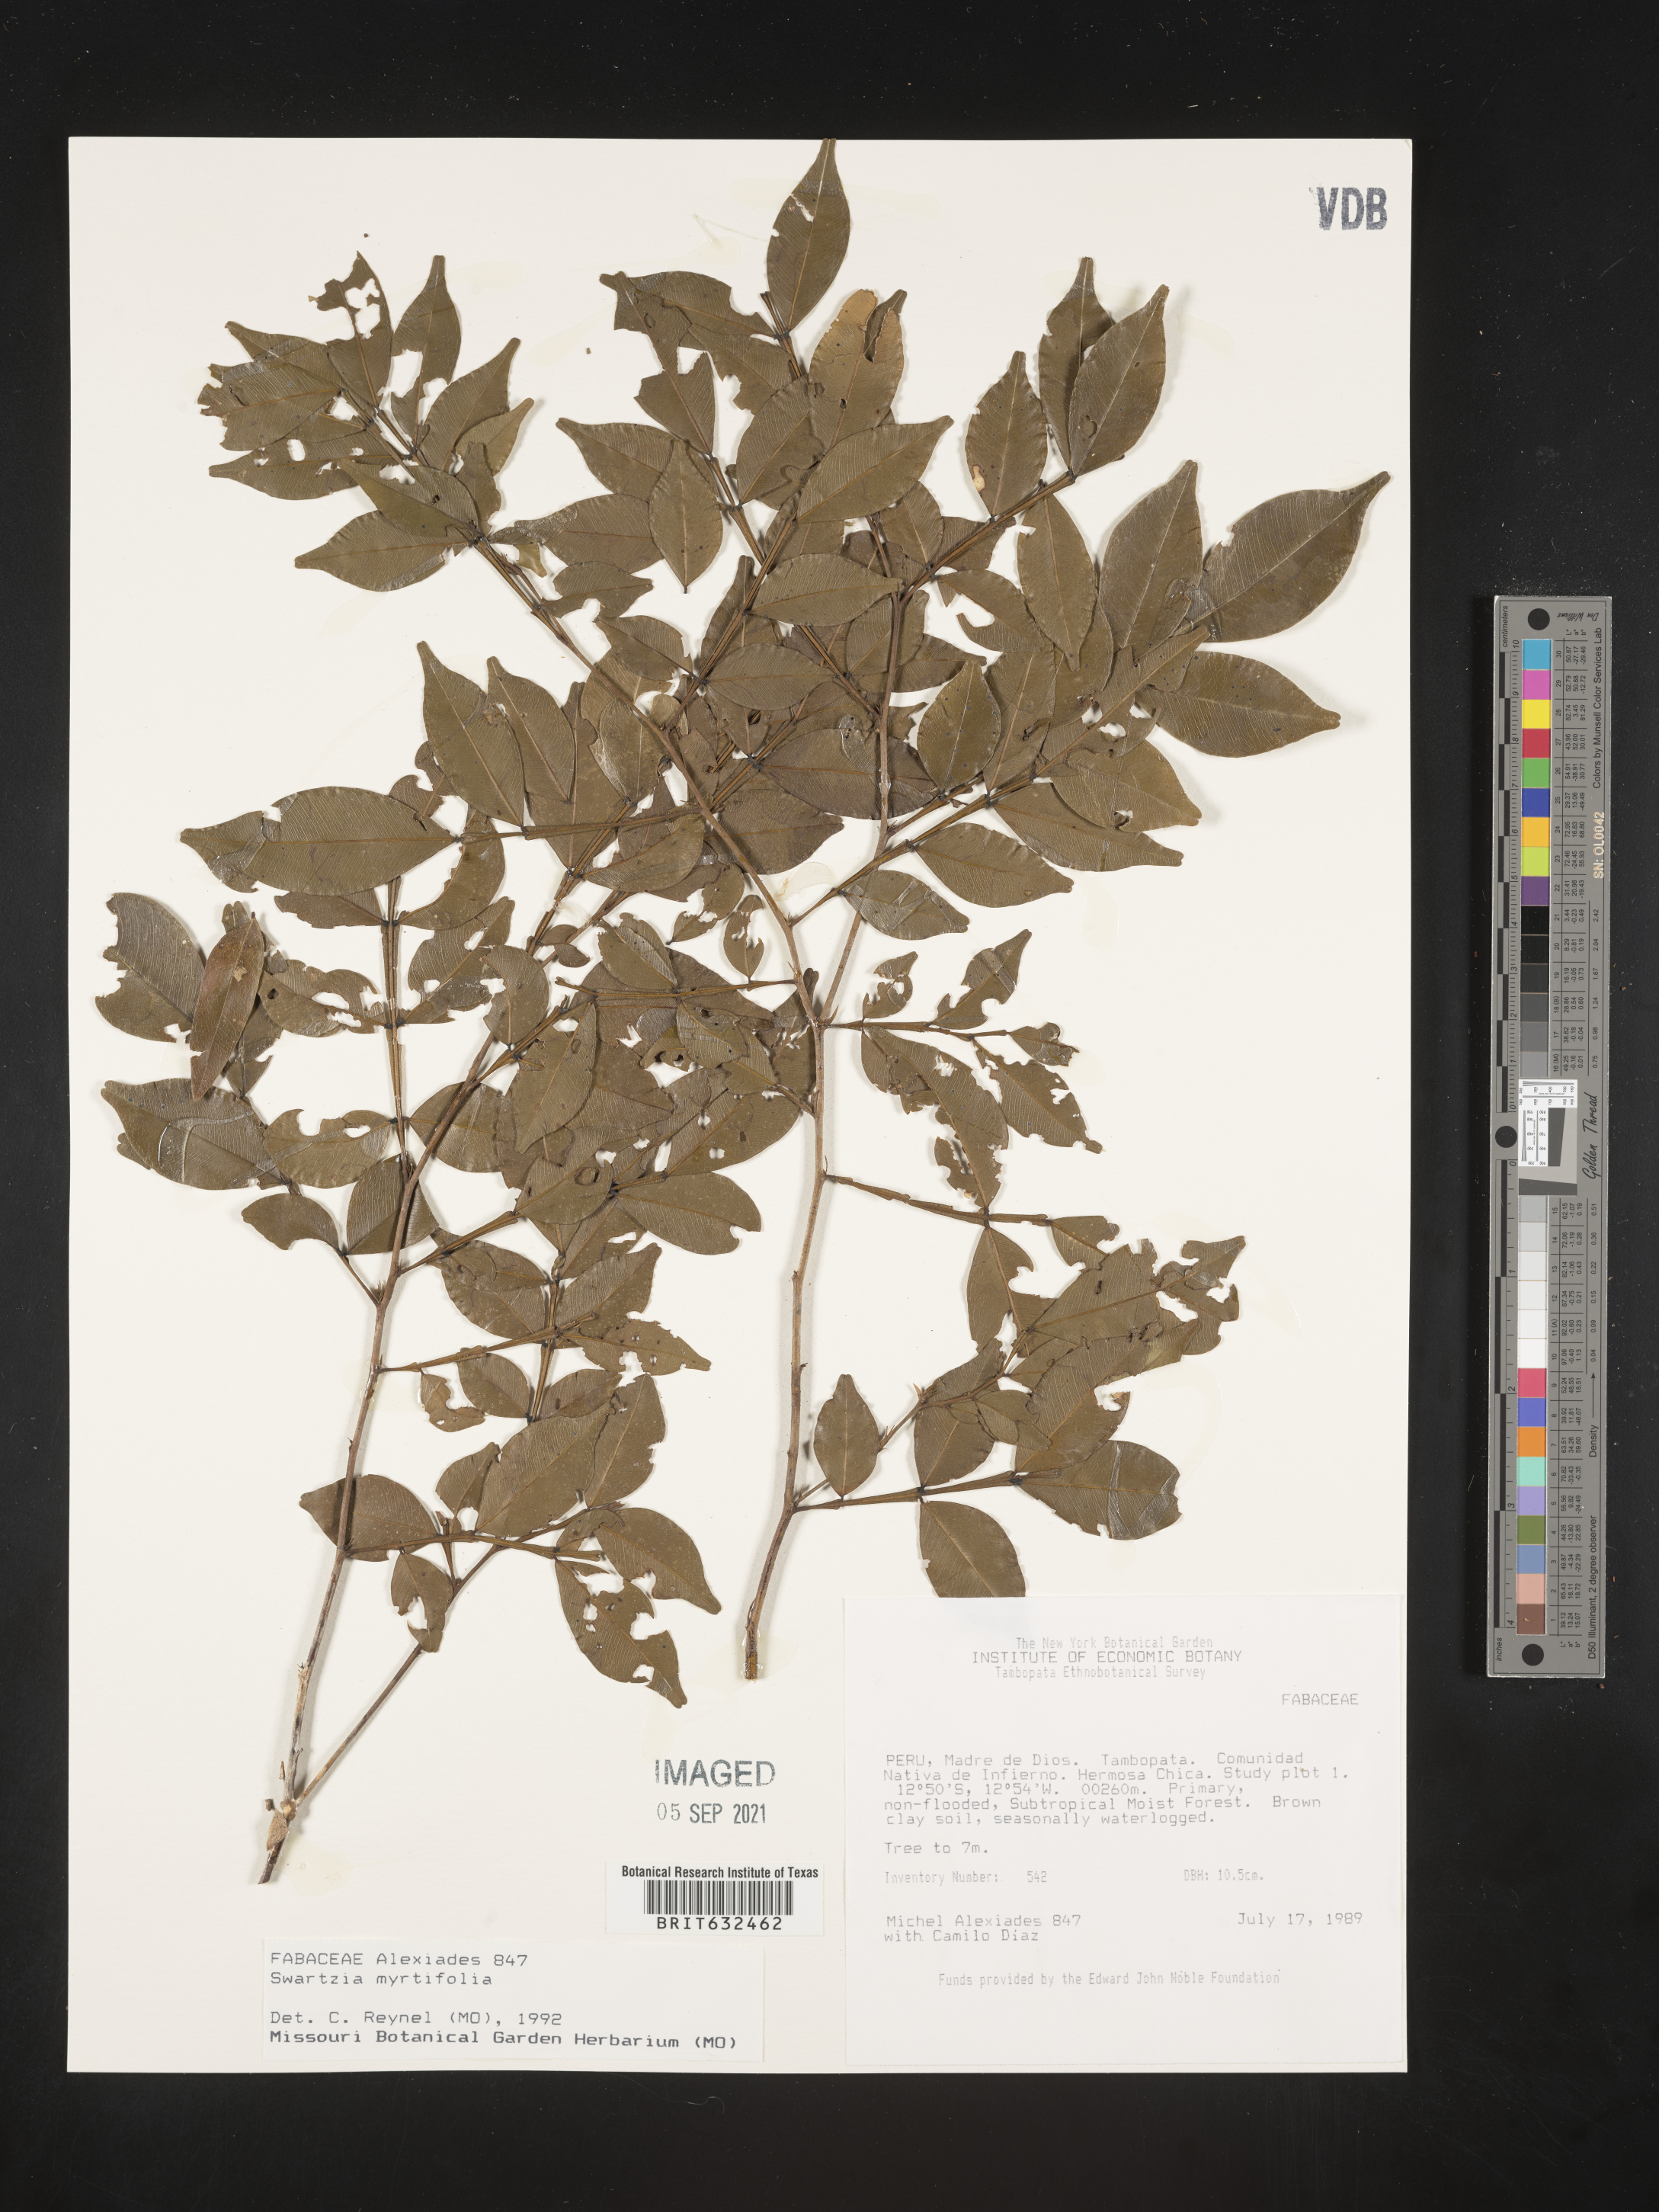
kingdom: Plantae
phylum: Tracheophyta
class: Magnoliopsida
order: Fabales
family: Fabaceae
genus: Swartzia
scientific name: Swartzia
